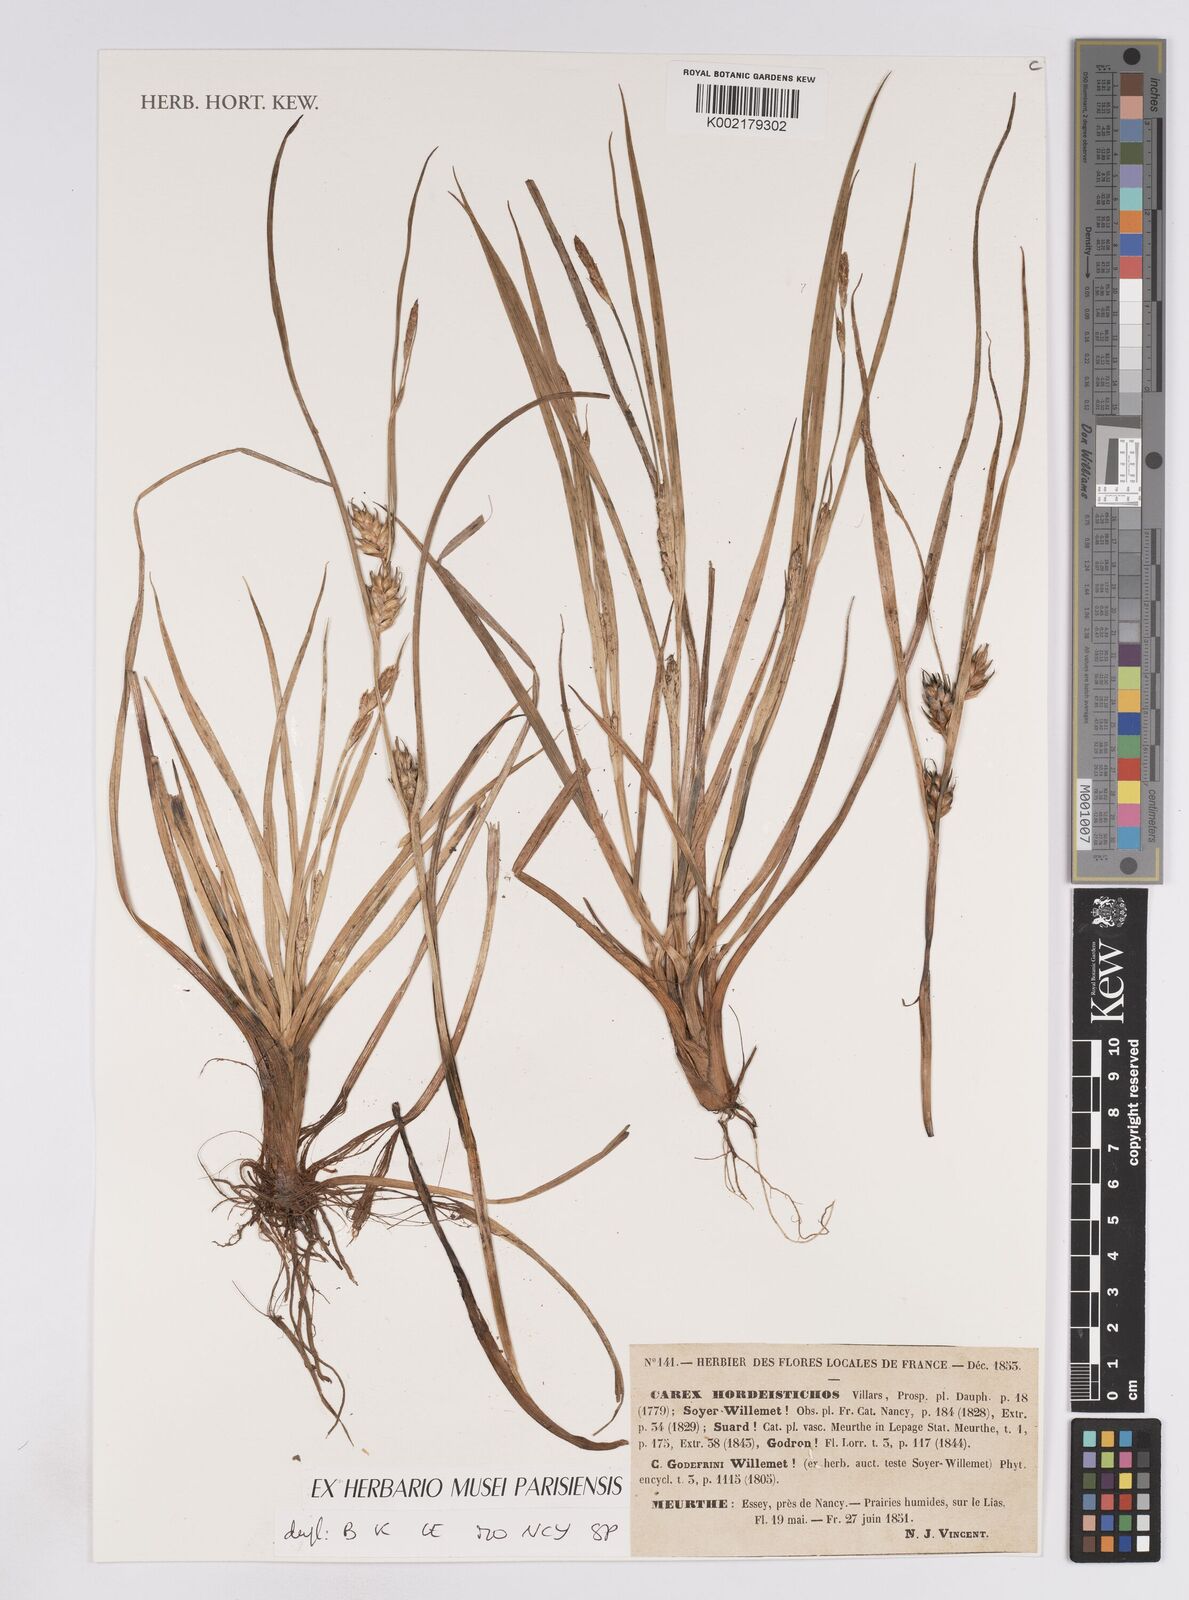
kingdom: Plantae
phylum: Tracheophyta
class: Liliopsida
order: Poales
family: Cyperaceae
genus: Carex
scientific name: Carex hordeistichos
